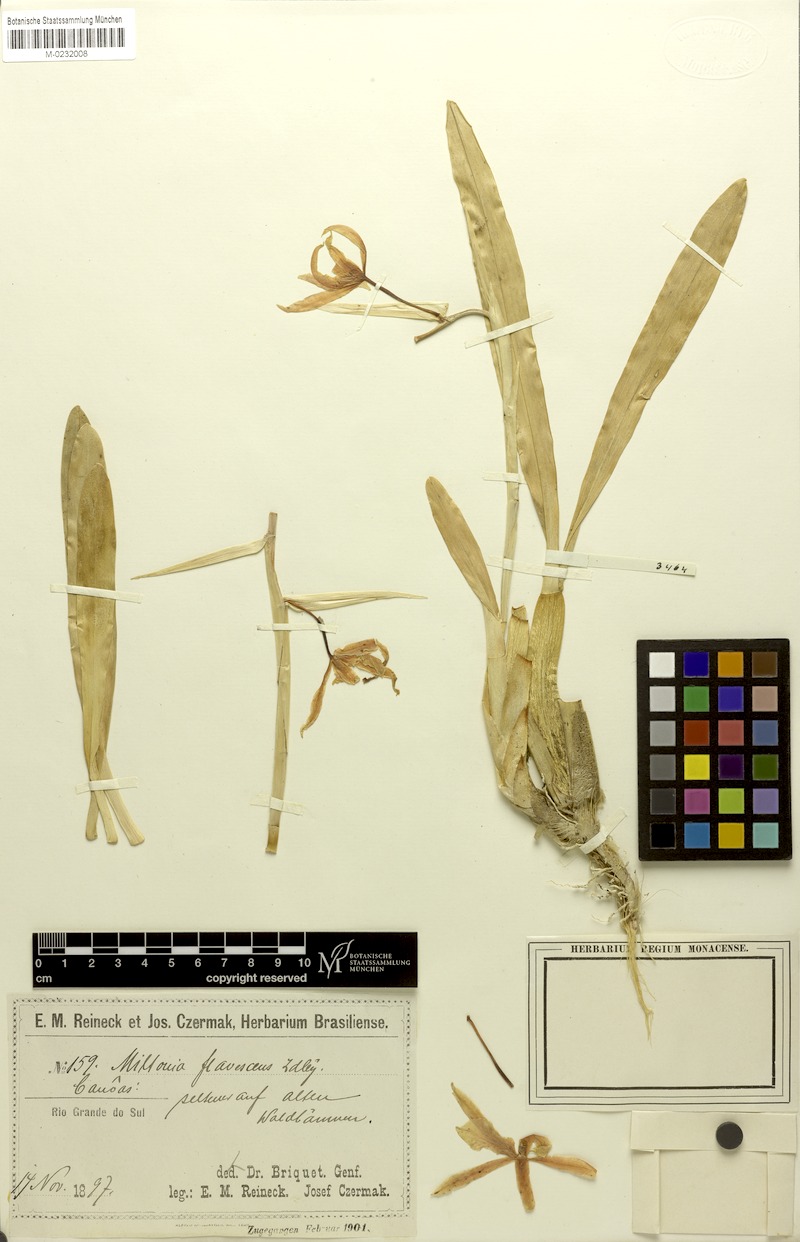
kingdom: Plantae
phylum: Tracheophyta
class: Liliopsida
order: Asparagales
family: Orchidaceae
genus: Miltonia
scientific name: Miltonia flavescens
